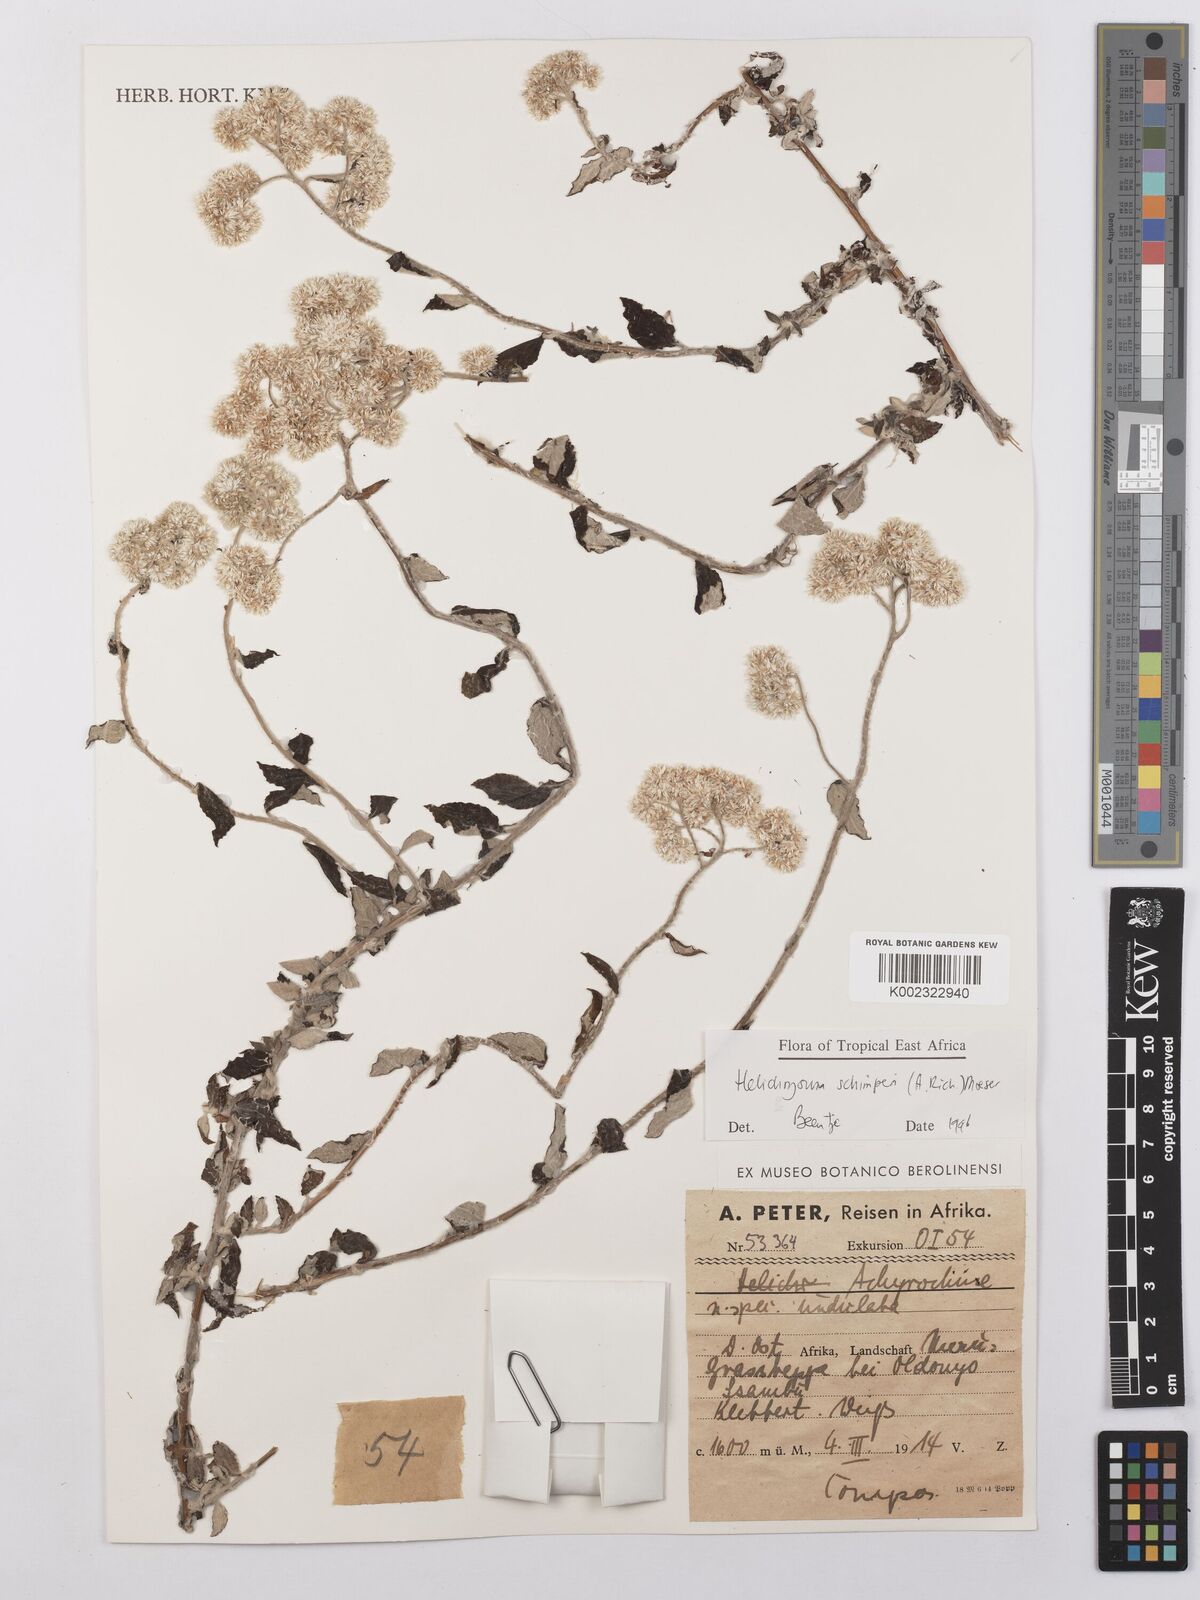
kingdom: Plantae
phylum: Tracheophyta
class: Magnoliopsida
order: Asterales
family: Asteraceae
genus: Helichrysum
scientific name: Helichrysum schimperi
